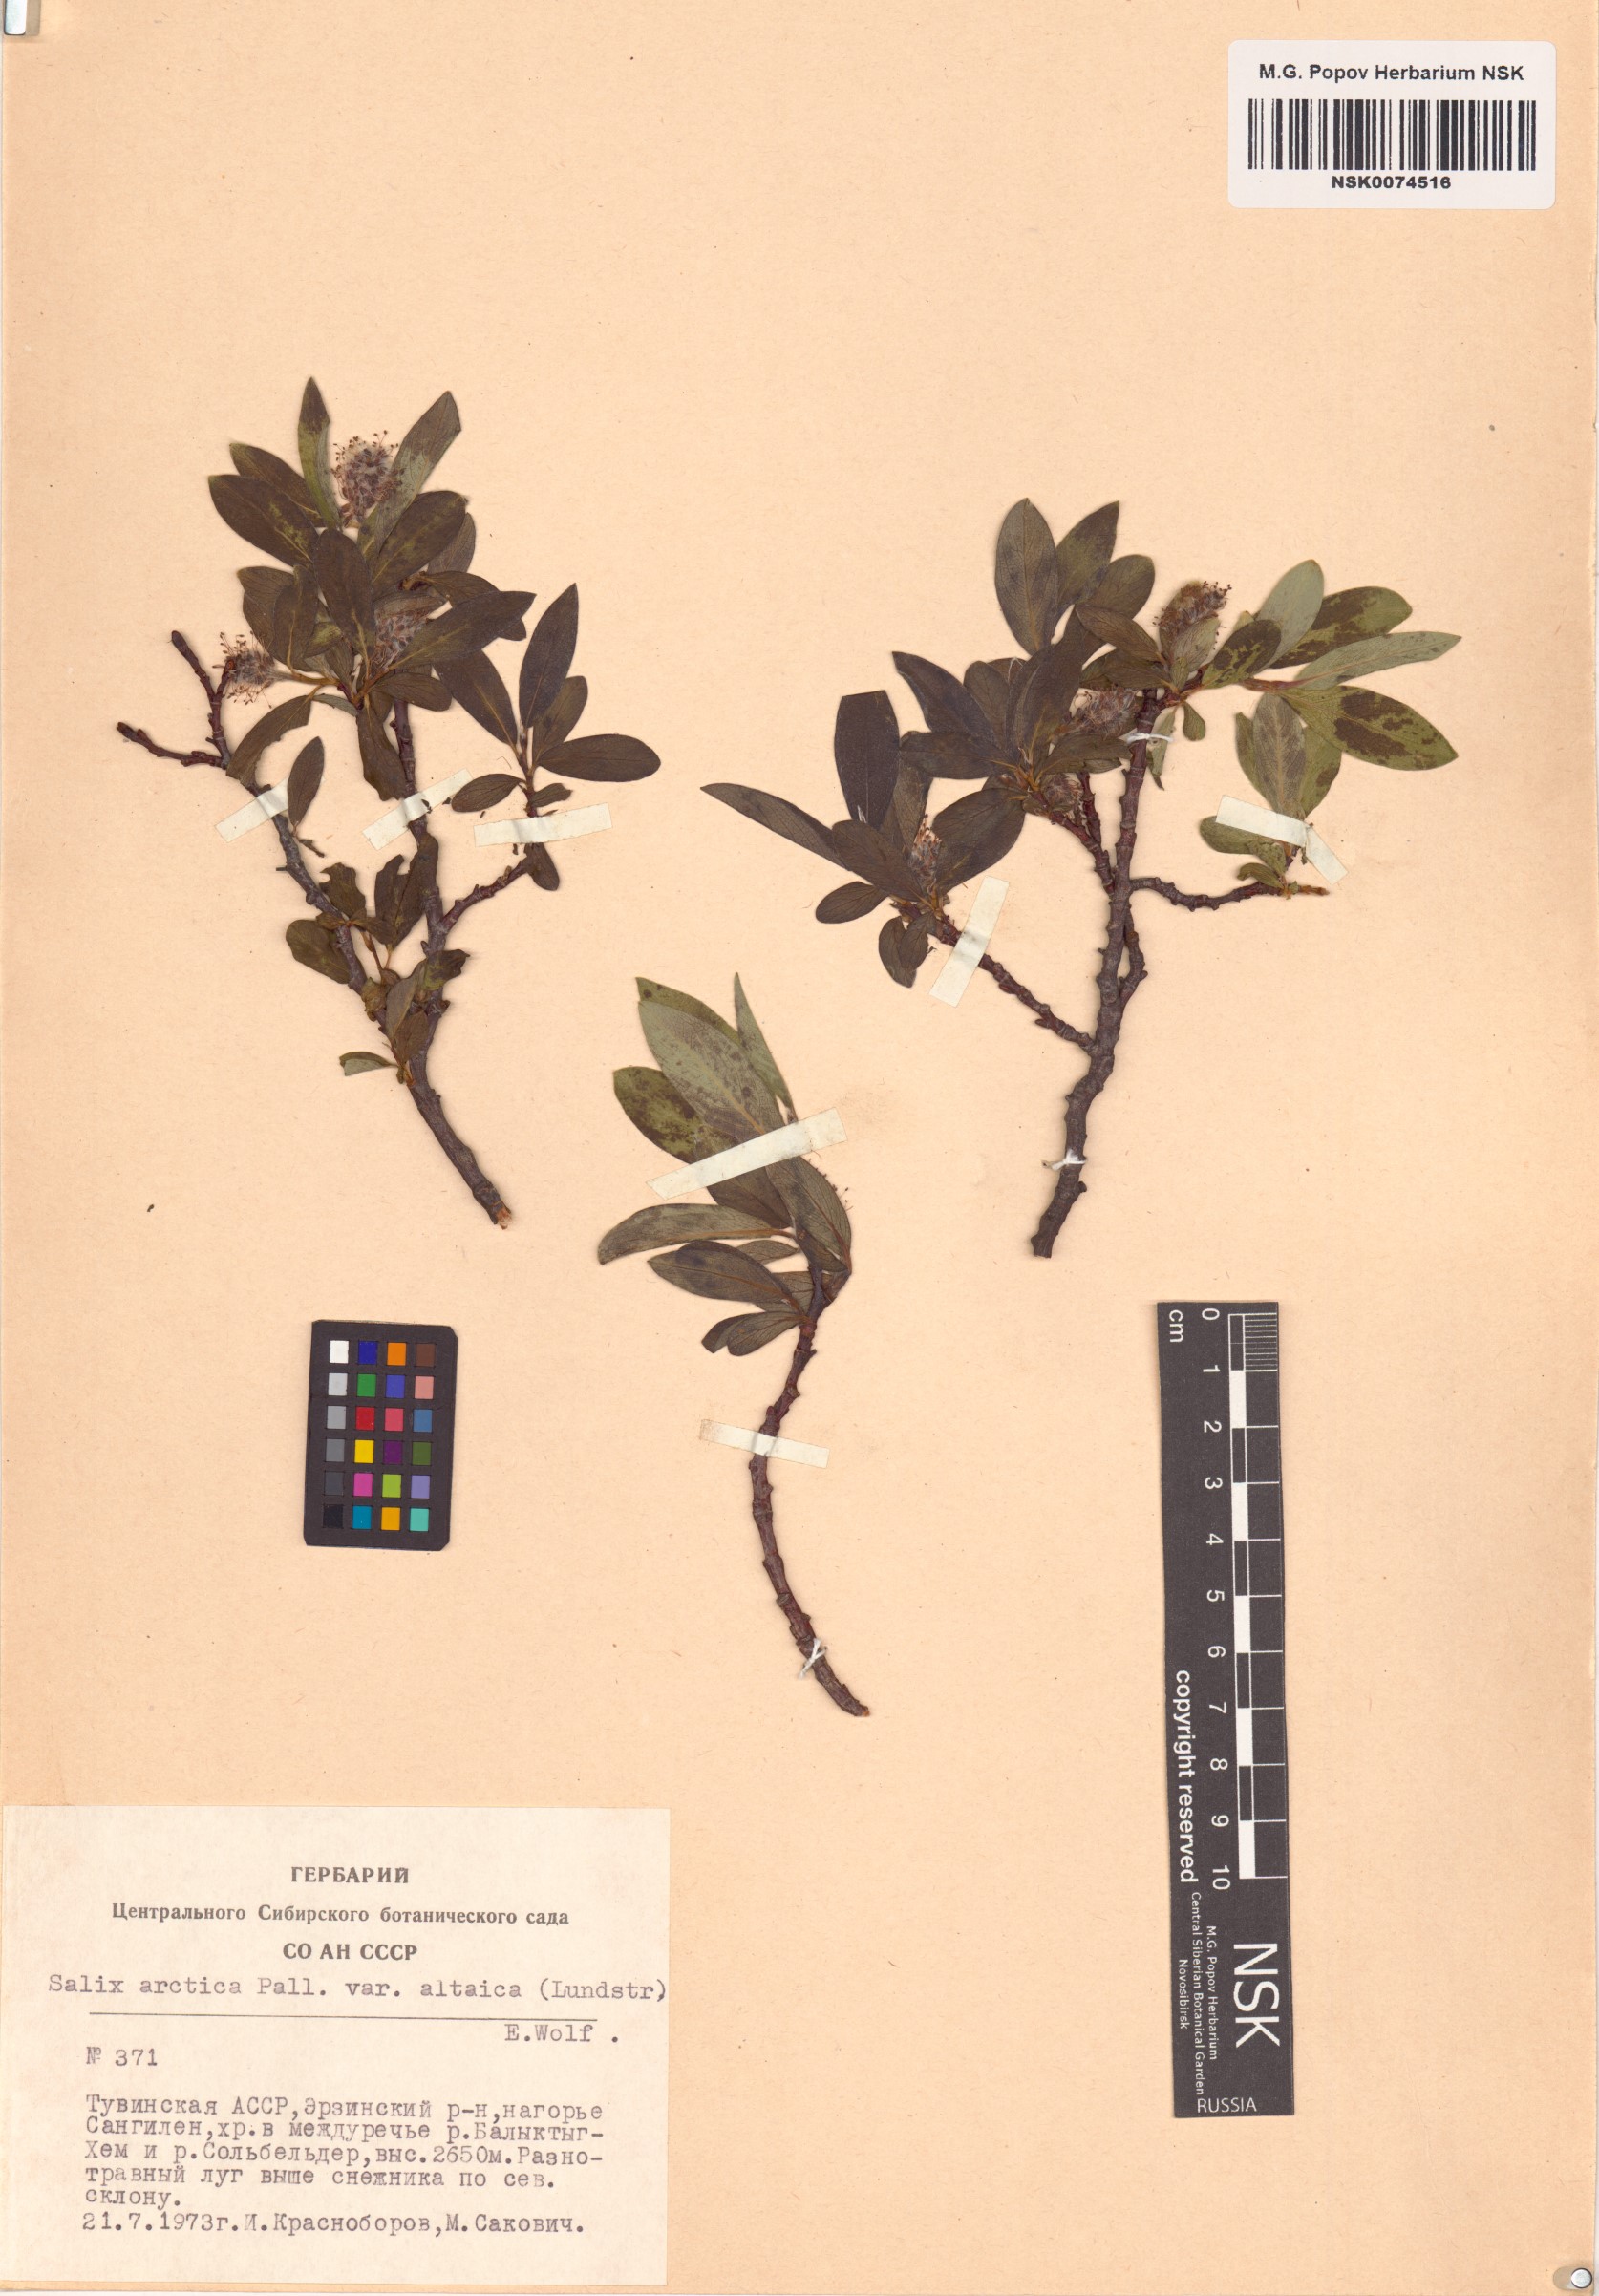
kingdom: Plantae
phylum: Tracheophyta
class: Magnoliopsida
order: Malpighiales
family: Salicaceae
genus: Salix
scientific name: Salix arctica
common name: Arctic willow
